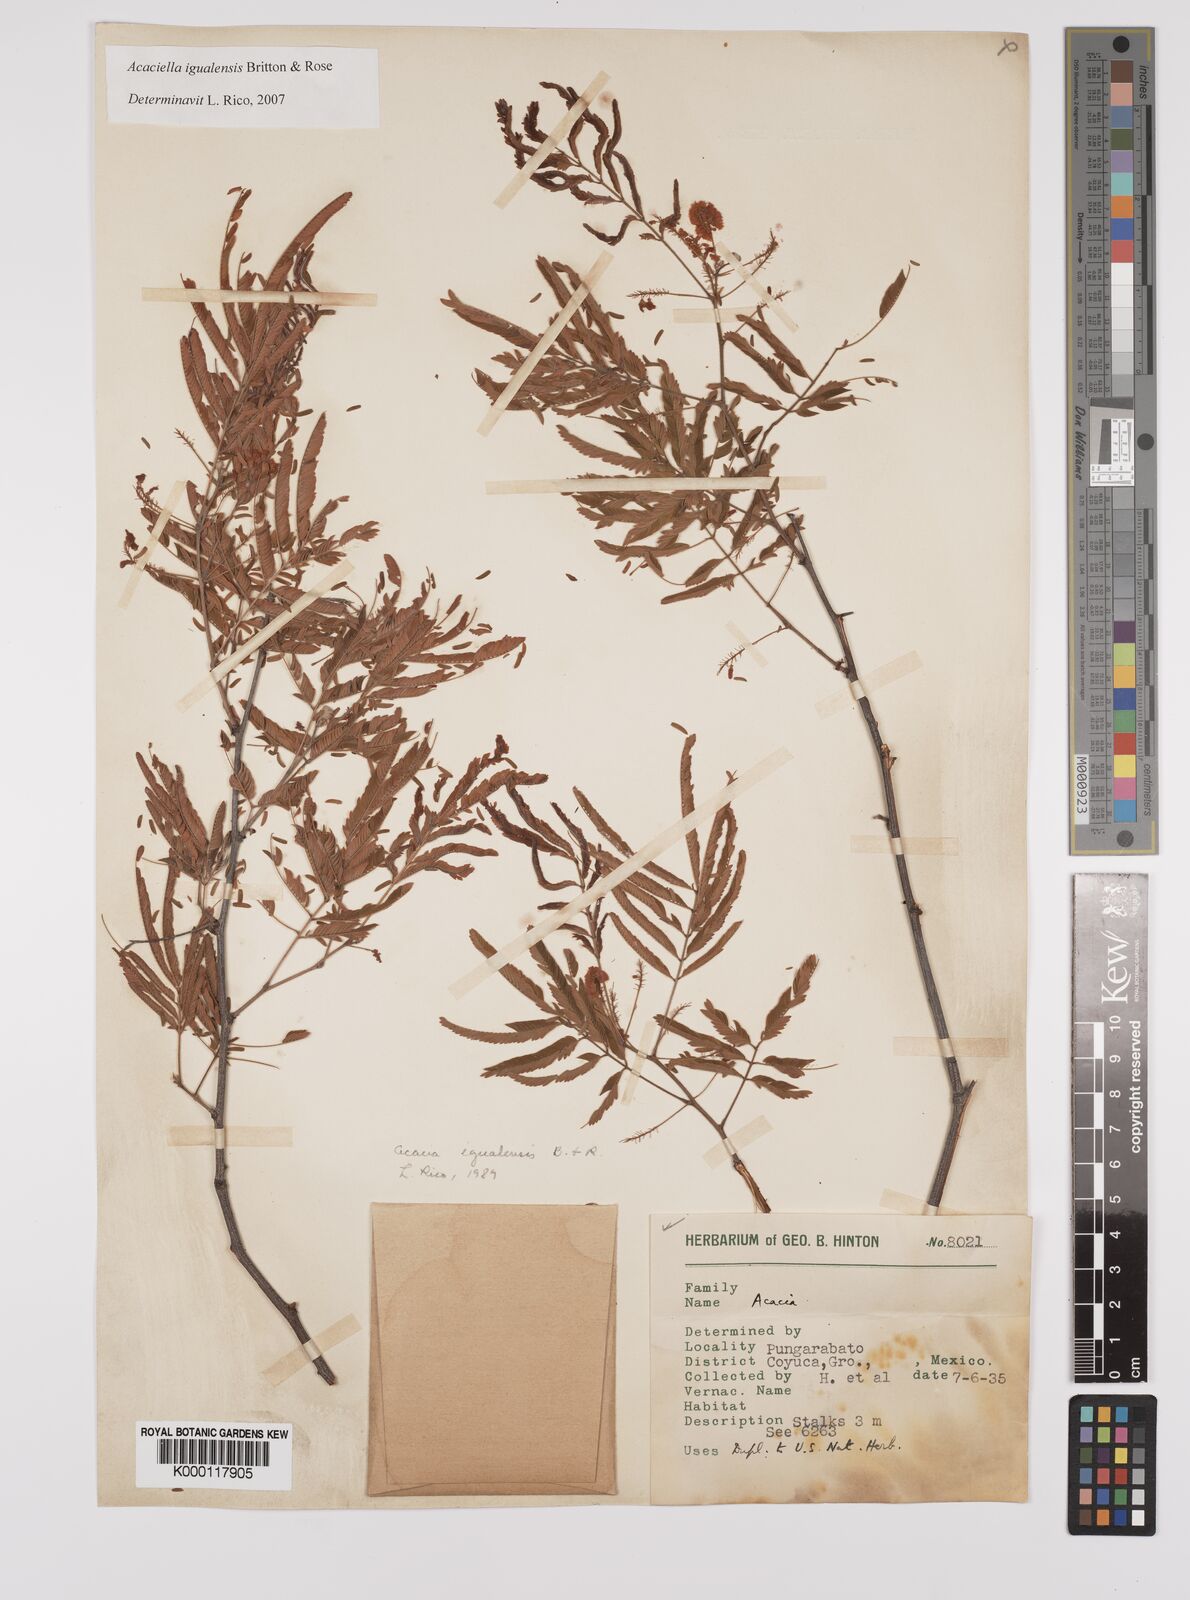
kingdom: Plantae
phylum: Tracheophyta
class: Magnoliopsida
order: Fabales
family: Fabaceae
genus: Acaciella
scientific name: Acaciella igualensis
